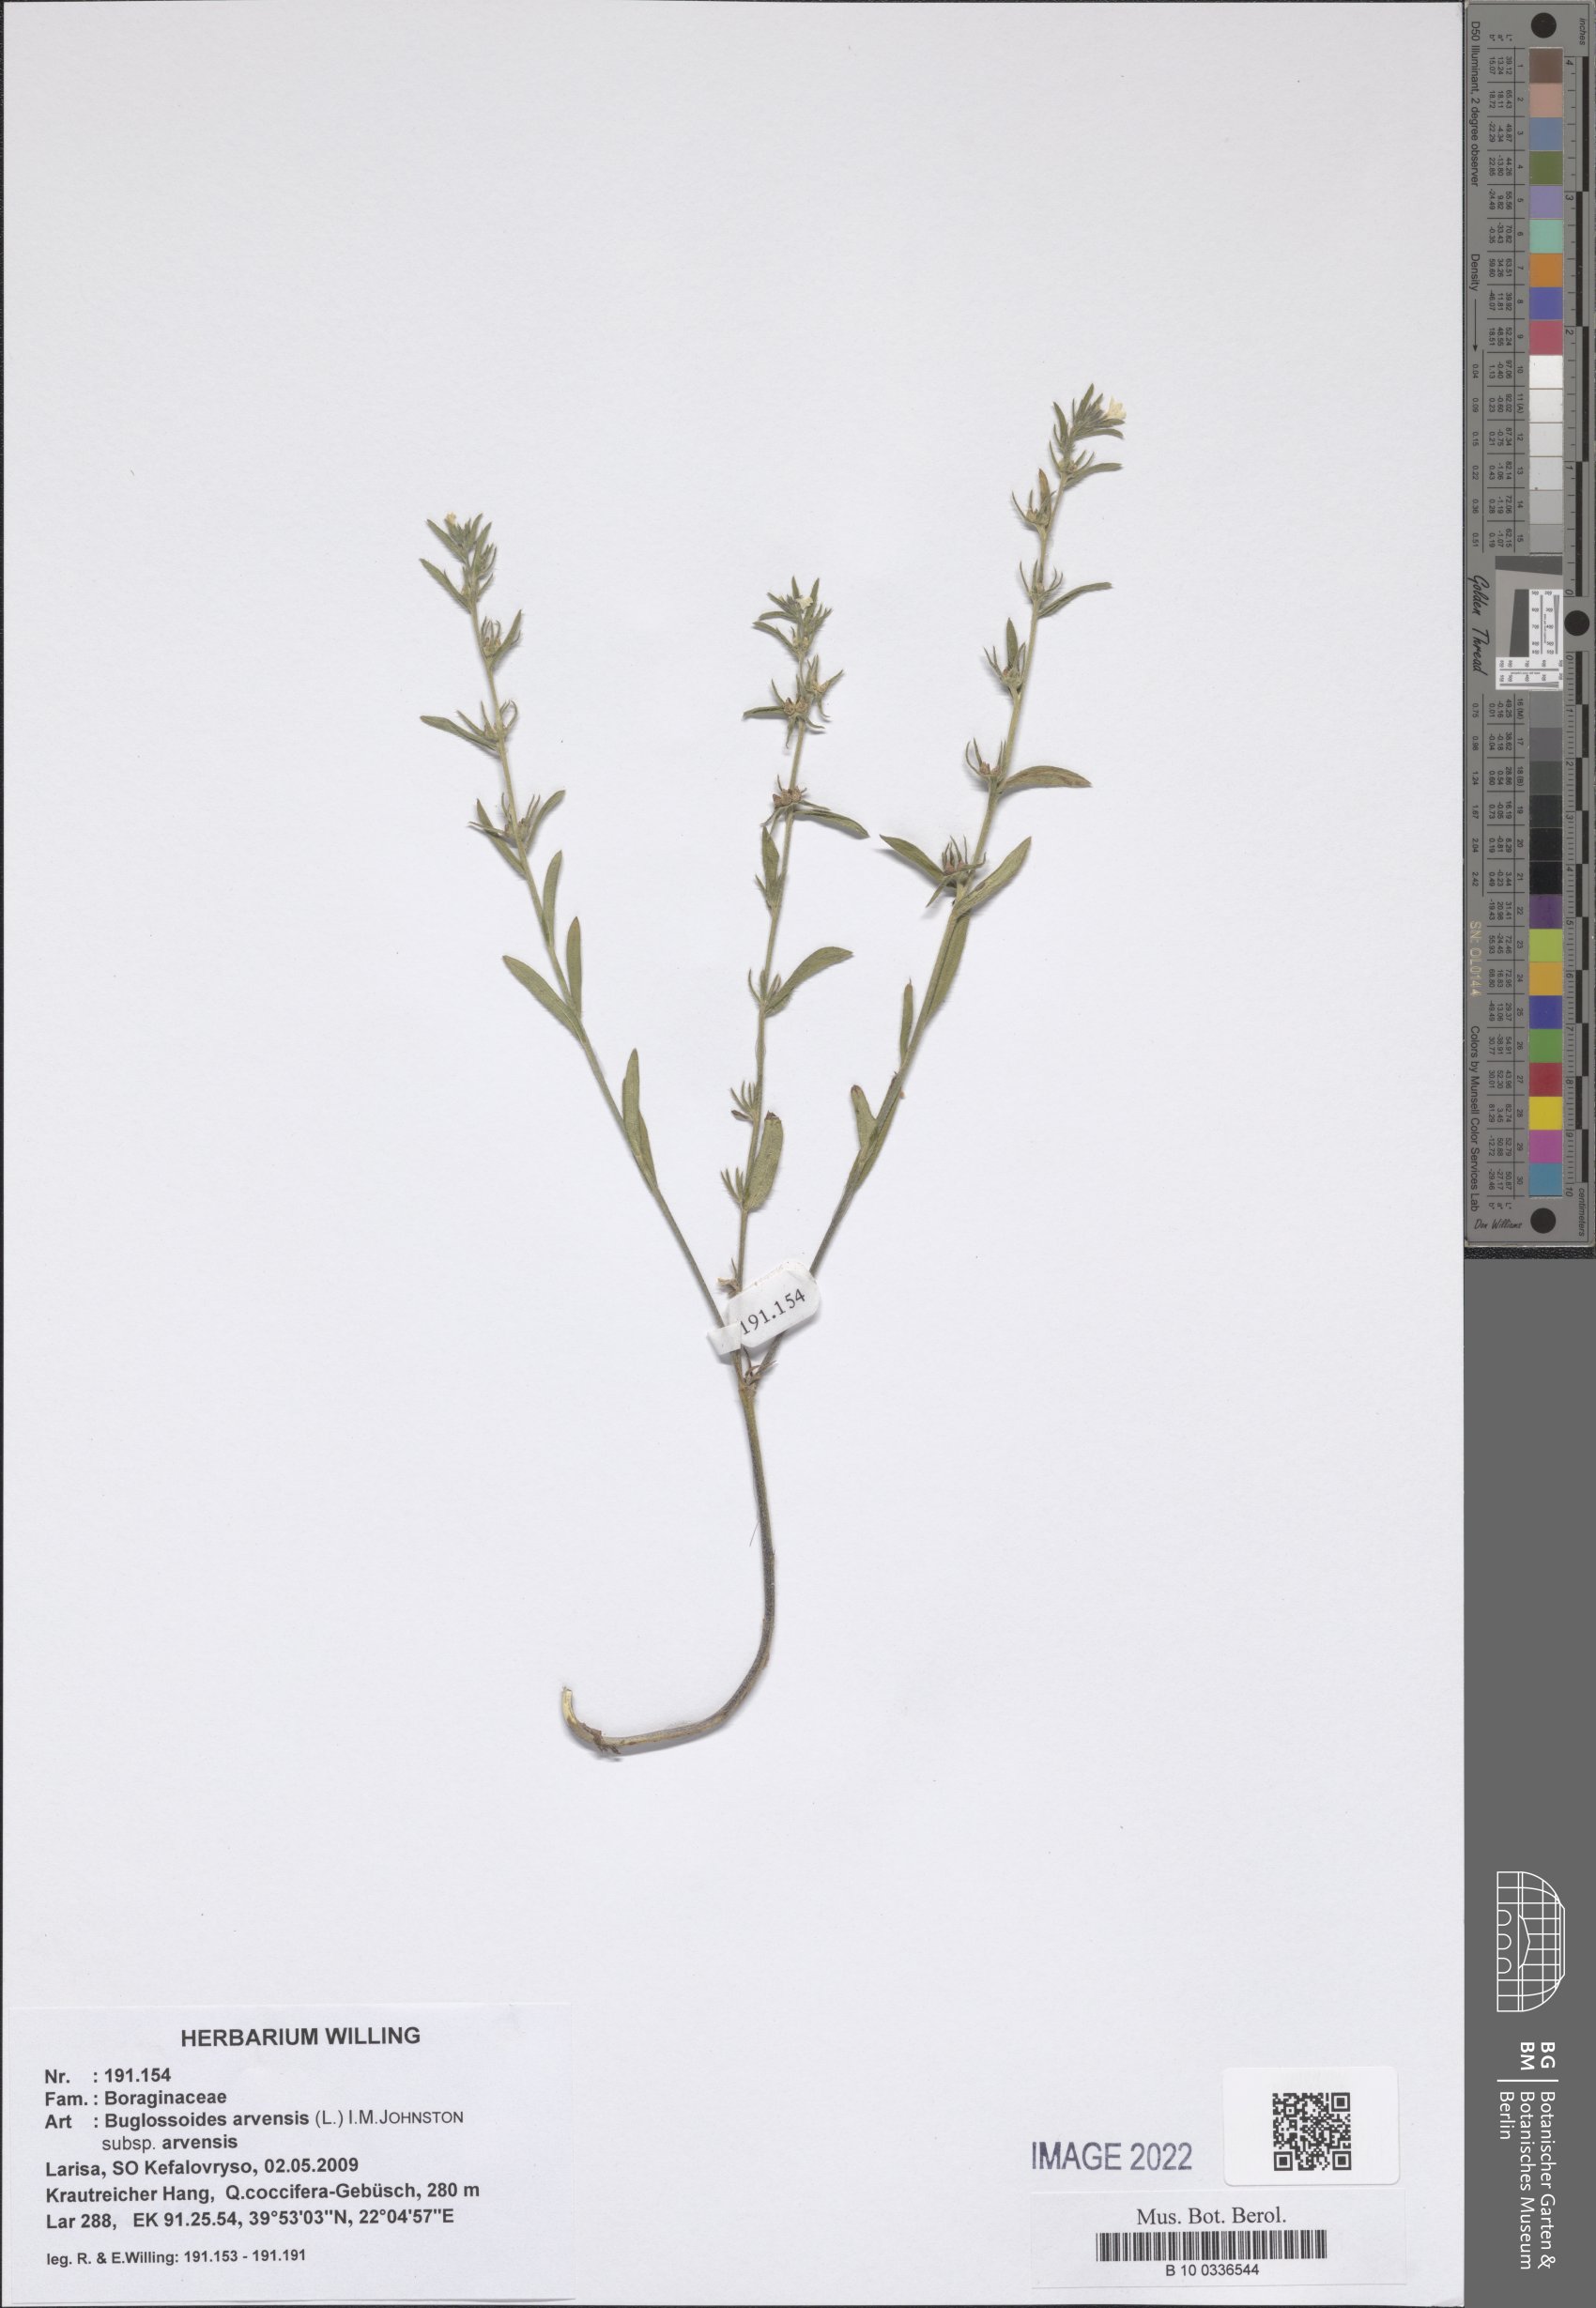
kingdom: Plantae
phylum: Tracheophyta
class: Magnoliopsida
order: Boraginales
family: Boraginaceae
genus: Buglossoides
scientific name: Buglossoides arvensis
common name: Corn gromwell
